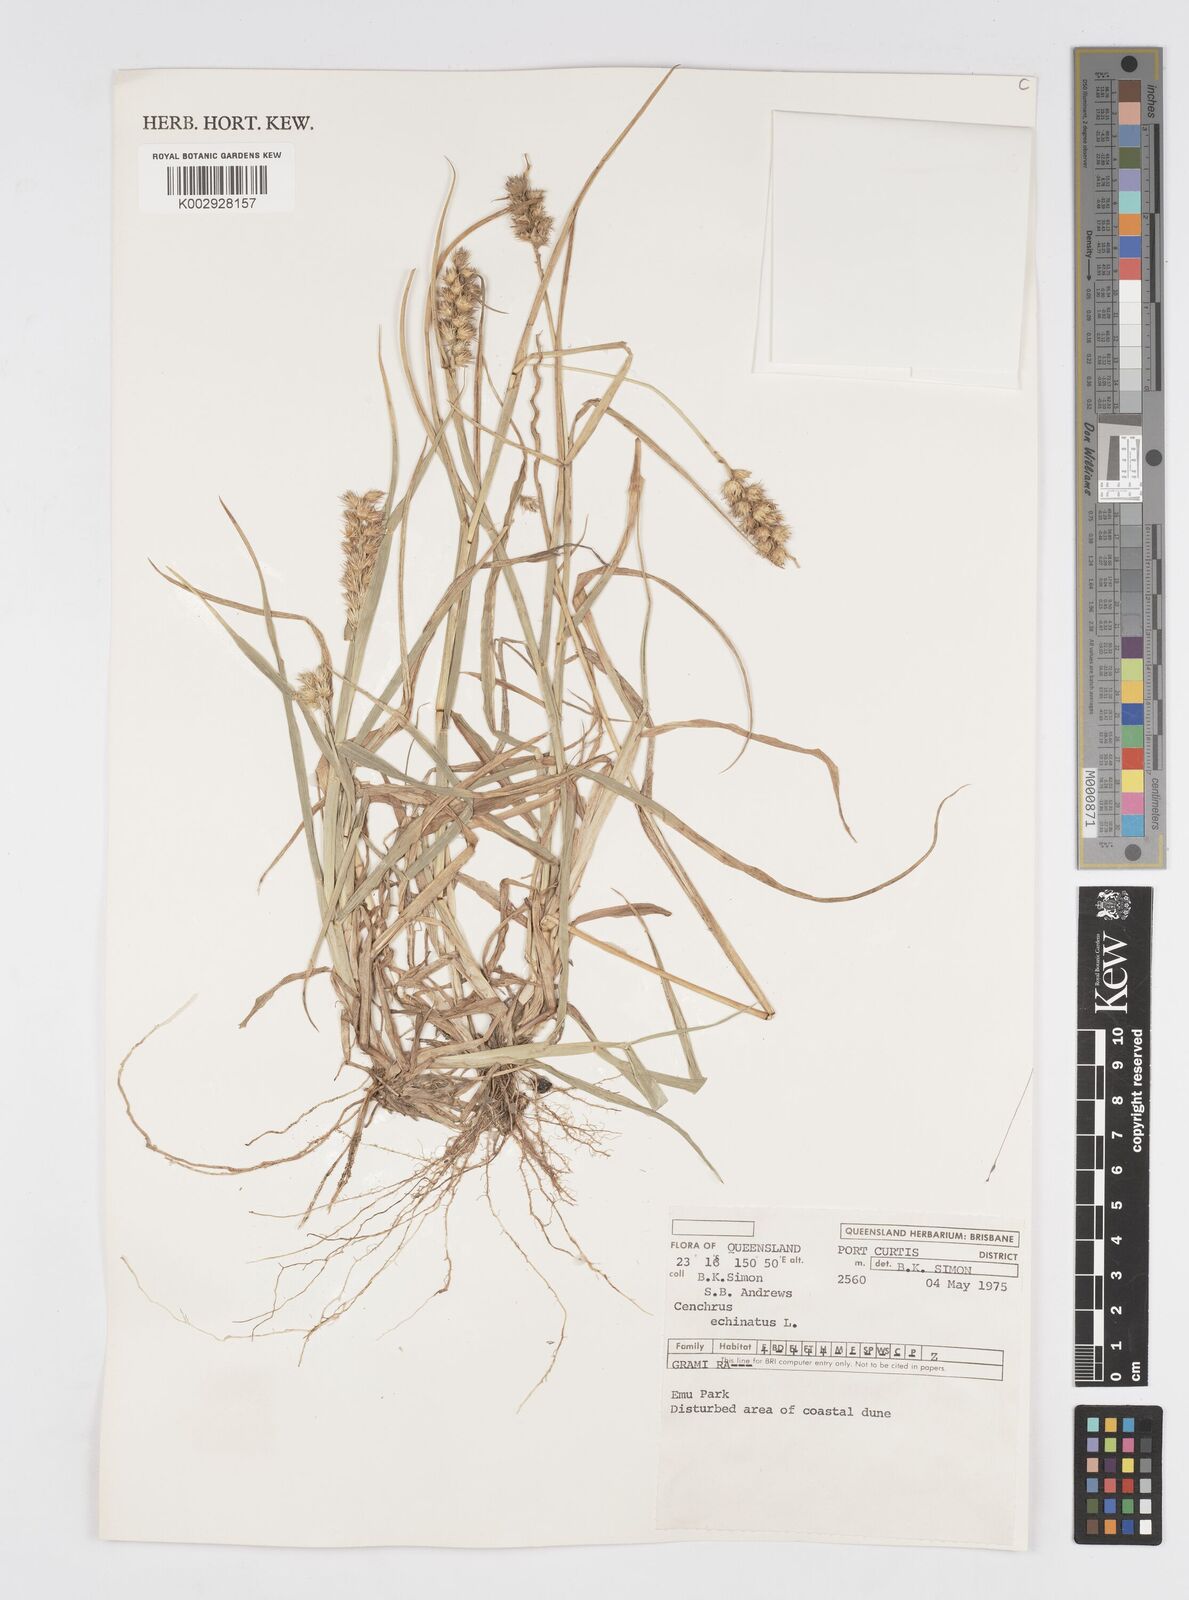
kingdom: Plantae
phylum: Tracheophyta
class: Liliopsida
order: Poales
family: Poaceae
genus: Cenchrus
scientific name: Cenchrus echinatus
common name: Southern sandbur
